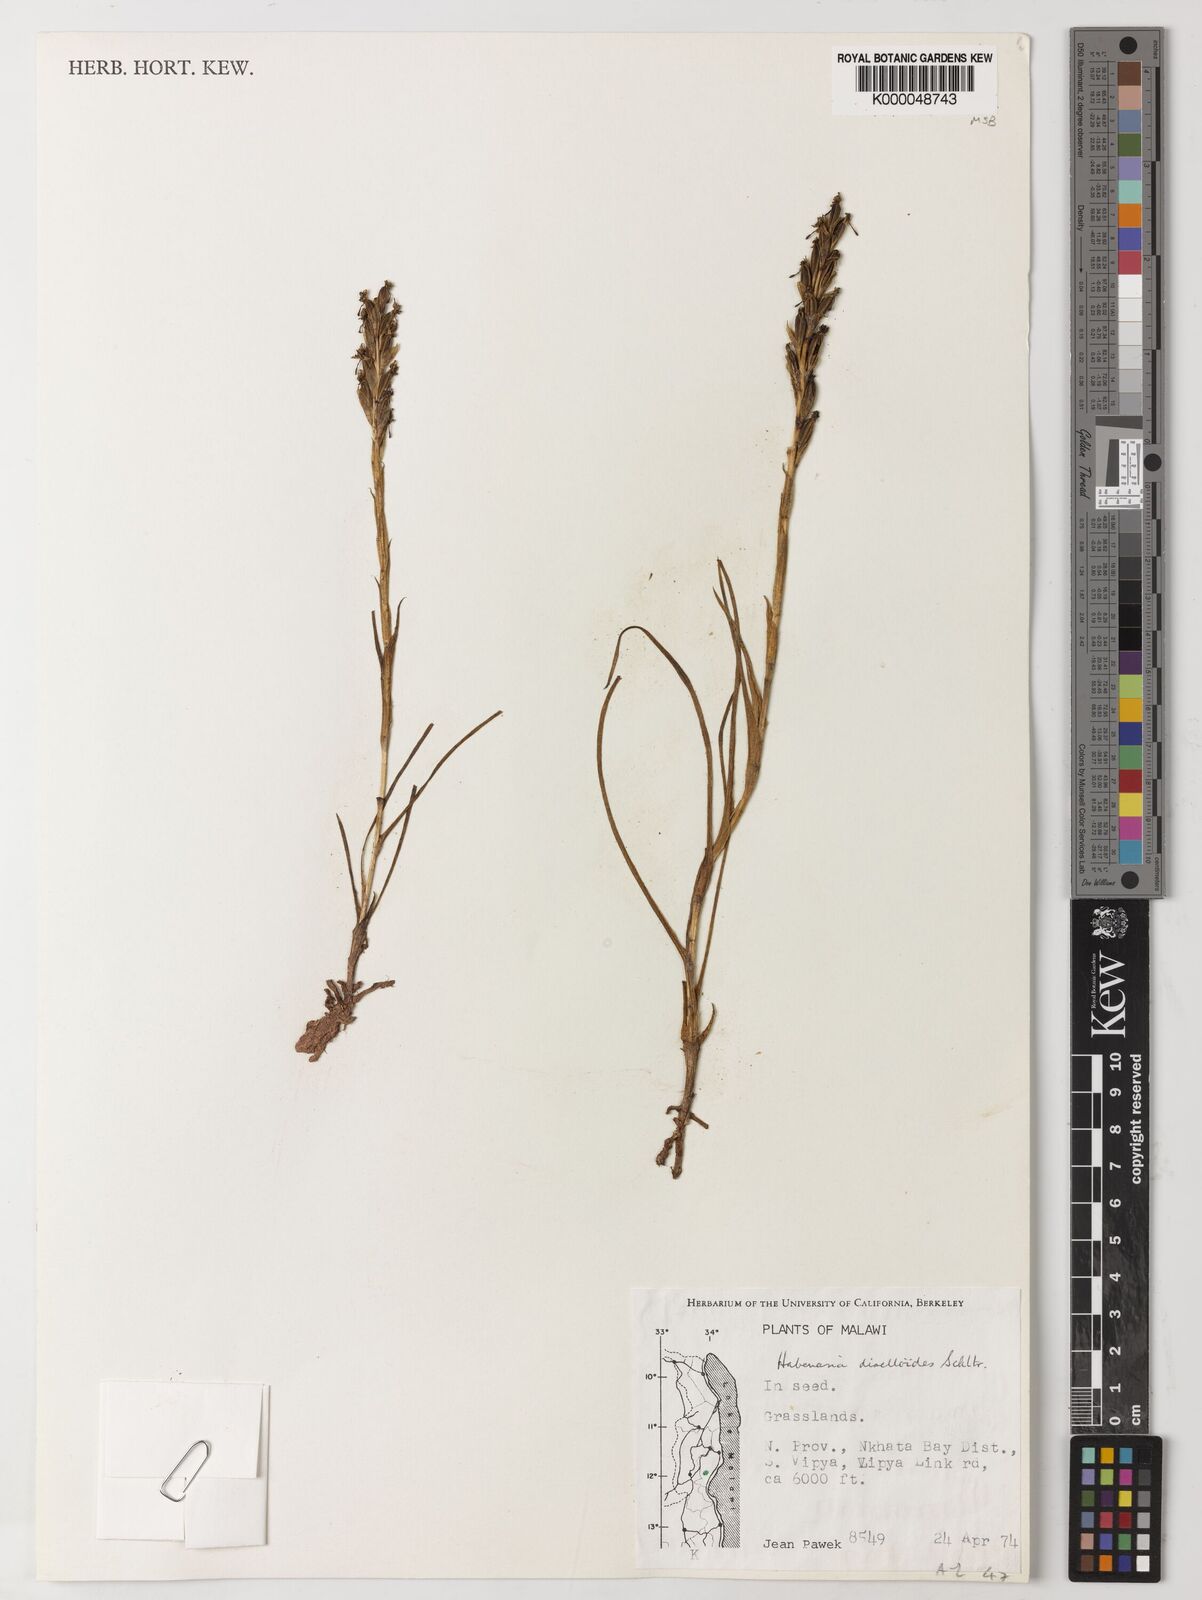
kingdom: Plantae
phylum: Tracheophyta
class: Liliopsida
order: Asparagales
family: Orchidaceae
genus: Habenaria
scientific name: Habenaria diselloides
